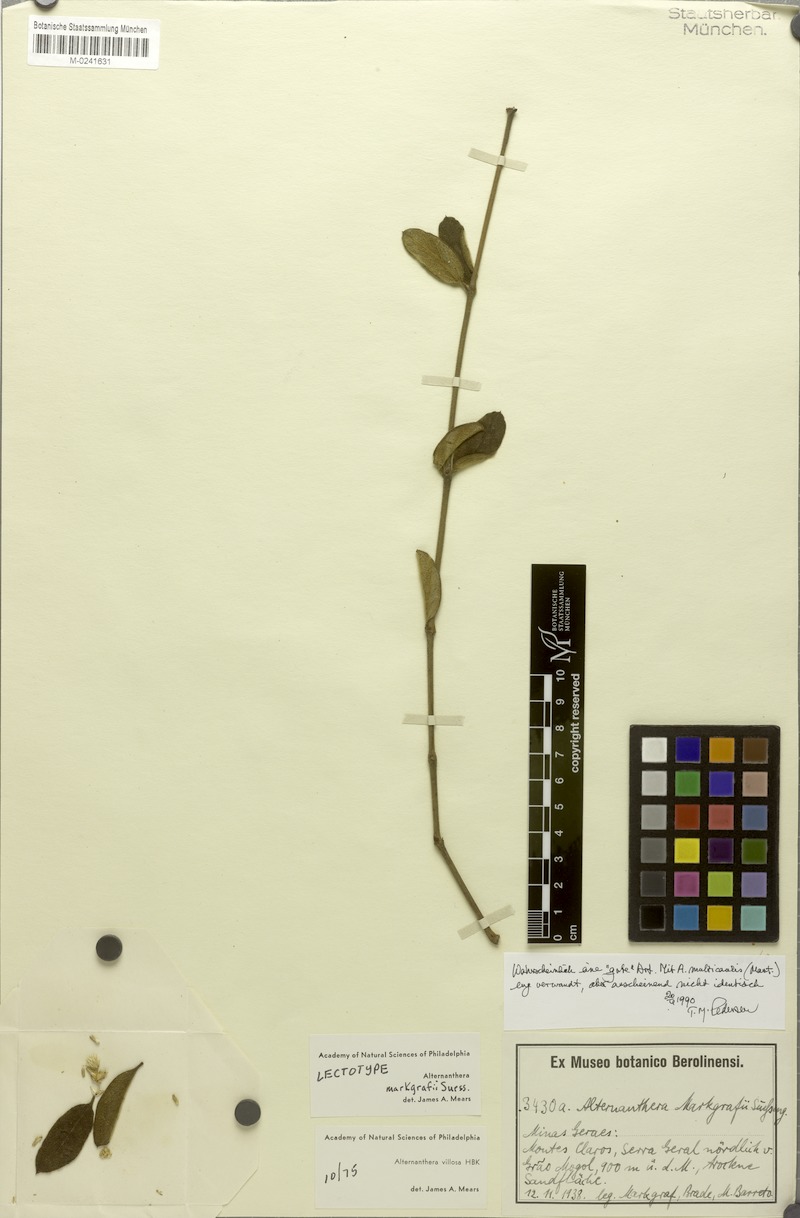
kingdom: Plantae
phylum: Tracheophyta
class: Magnoliopsida
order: Caryophyllales
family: Amaranthaceae
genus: Alternanthera
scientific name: Alternanthera markgrafii
